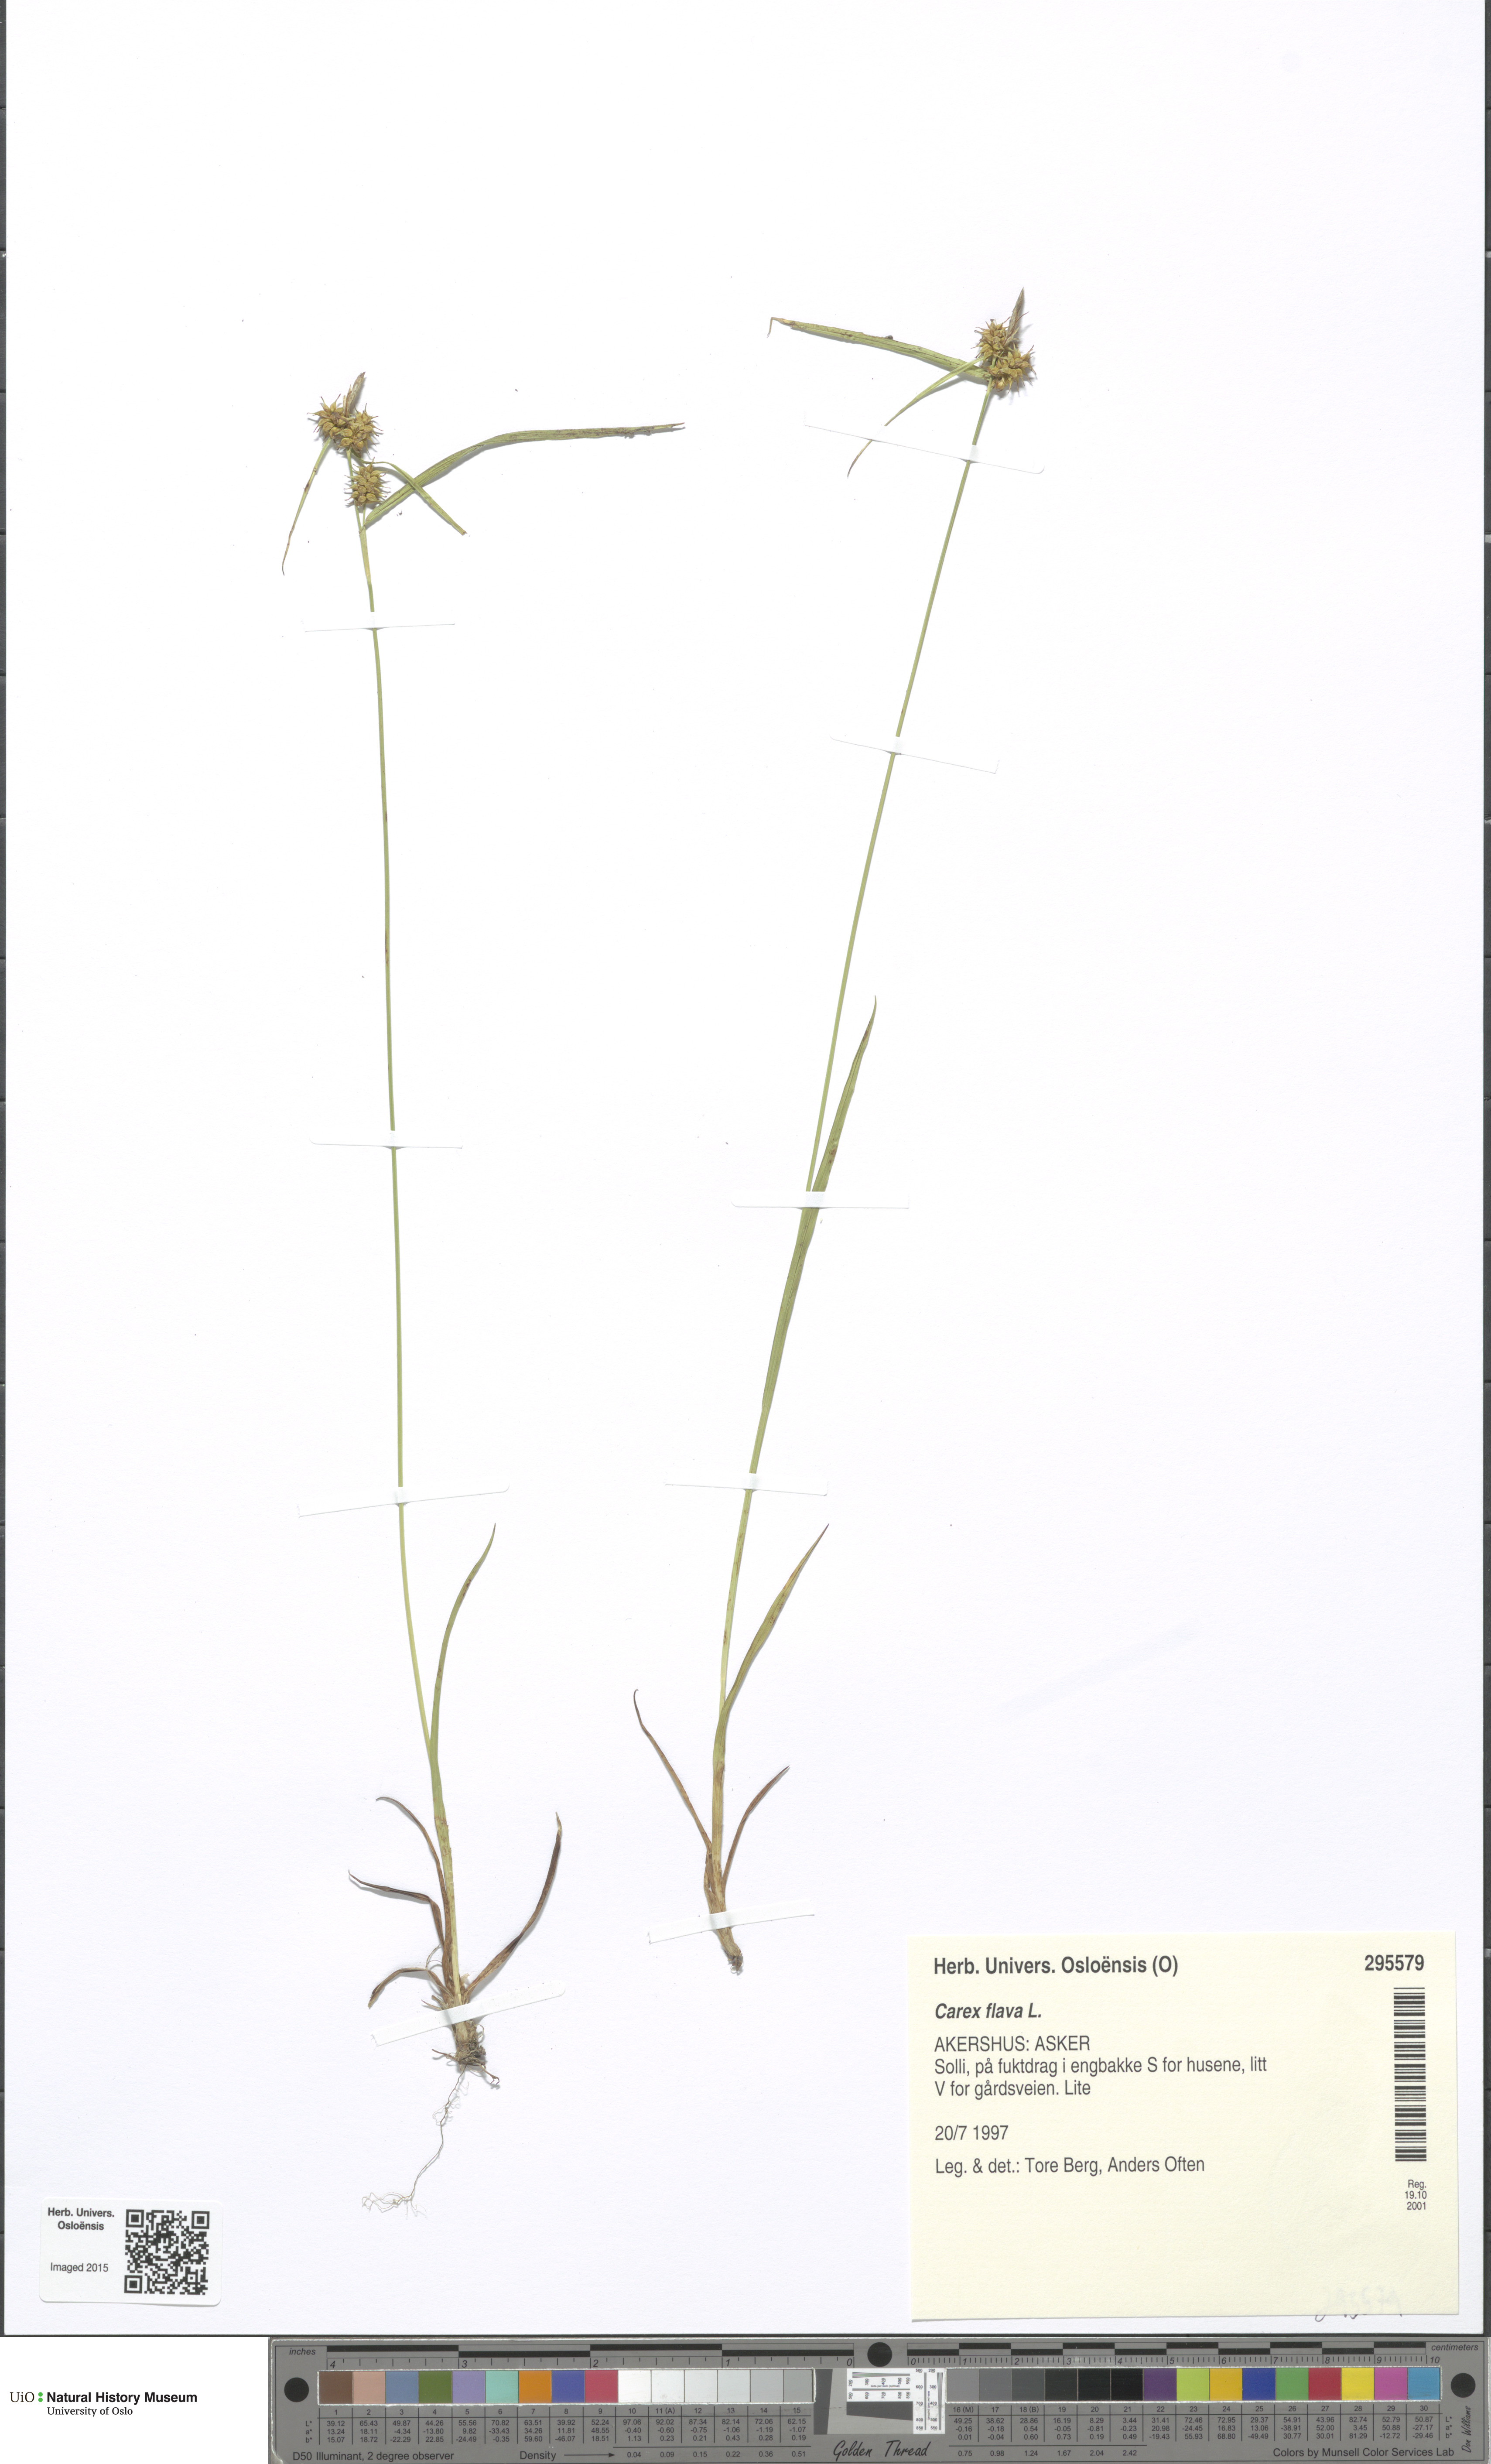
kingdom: Plantae
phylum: Tracheophyta
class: Liliopsida
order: Poales
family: Cyperaceae
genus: Carex
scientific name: Carex flava
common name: Large yellow-sedge
